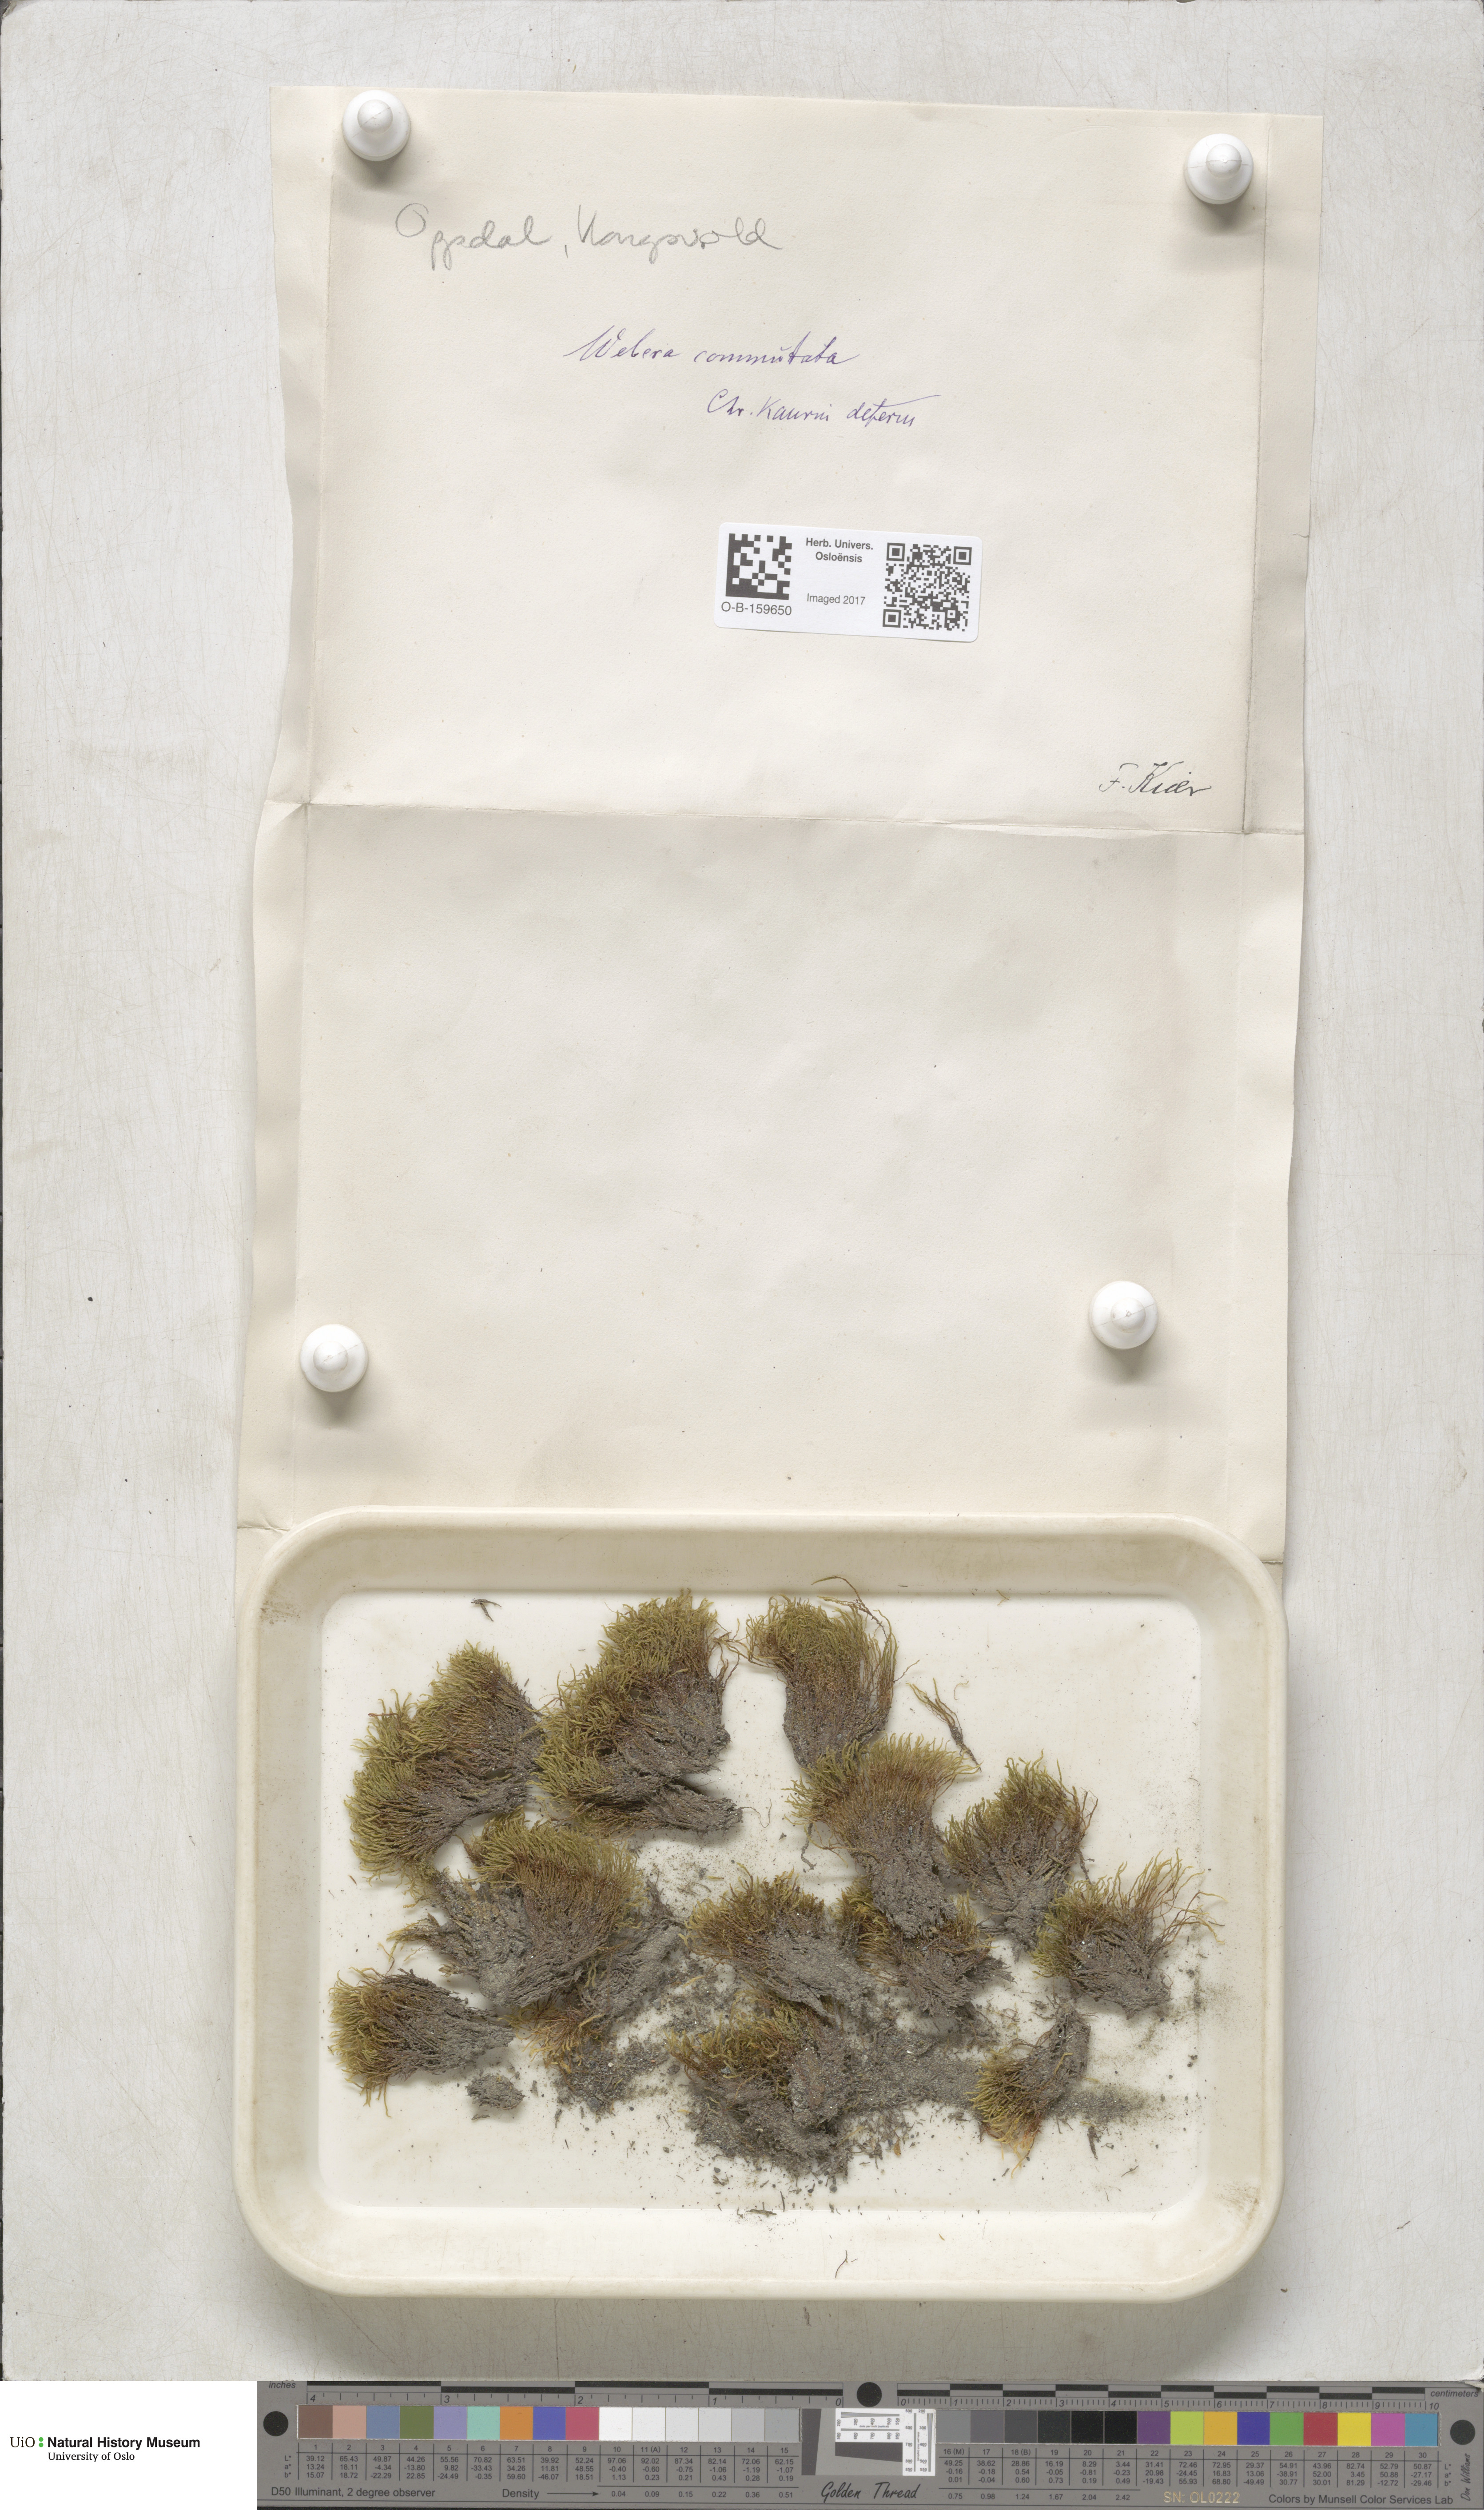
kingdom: Plantae
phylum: Bryophyta
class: Bryopsida
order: Bryales
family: Mniaceae
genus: Pohlia
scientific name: Pohlia drummondii
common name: Drummond's nodding moss
